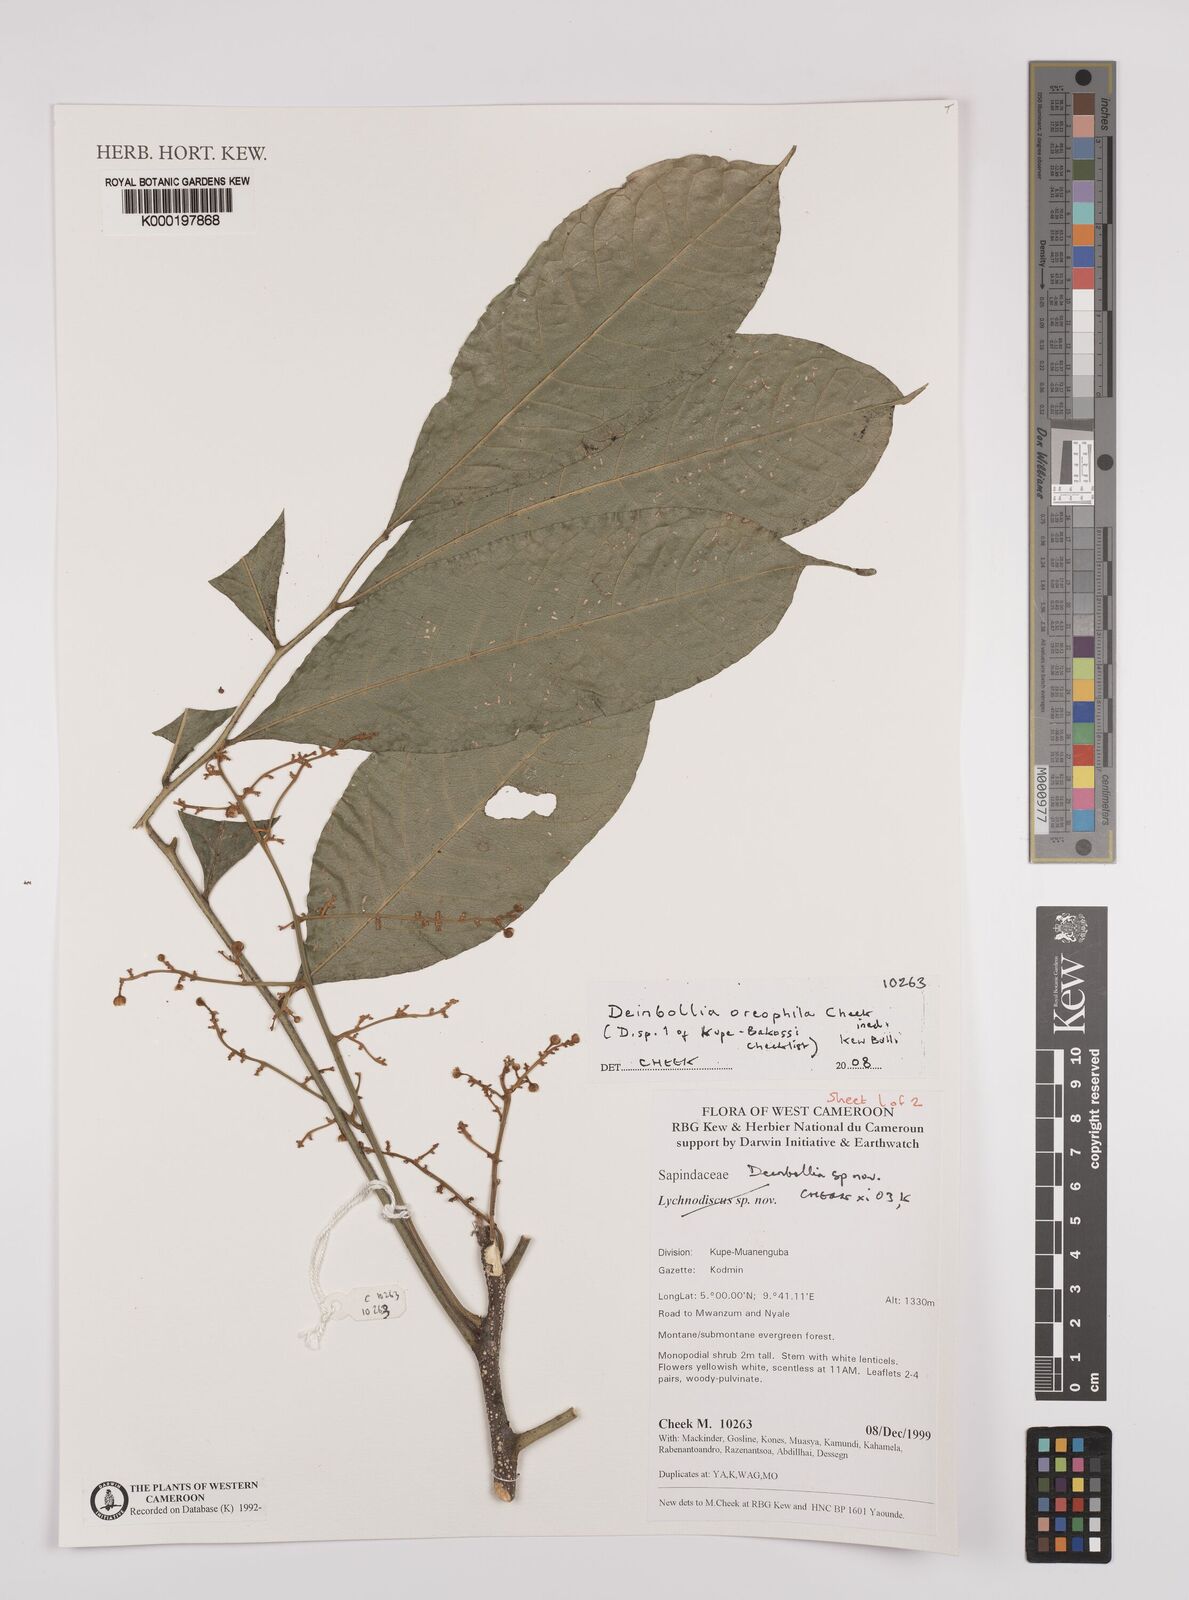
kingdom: Plantae
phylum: Tracheophyta
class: Magnoliopsida
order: Sapindales
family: Sapindaceae
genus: Deinbollia
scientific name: Deinbollia oreophila
